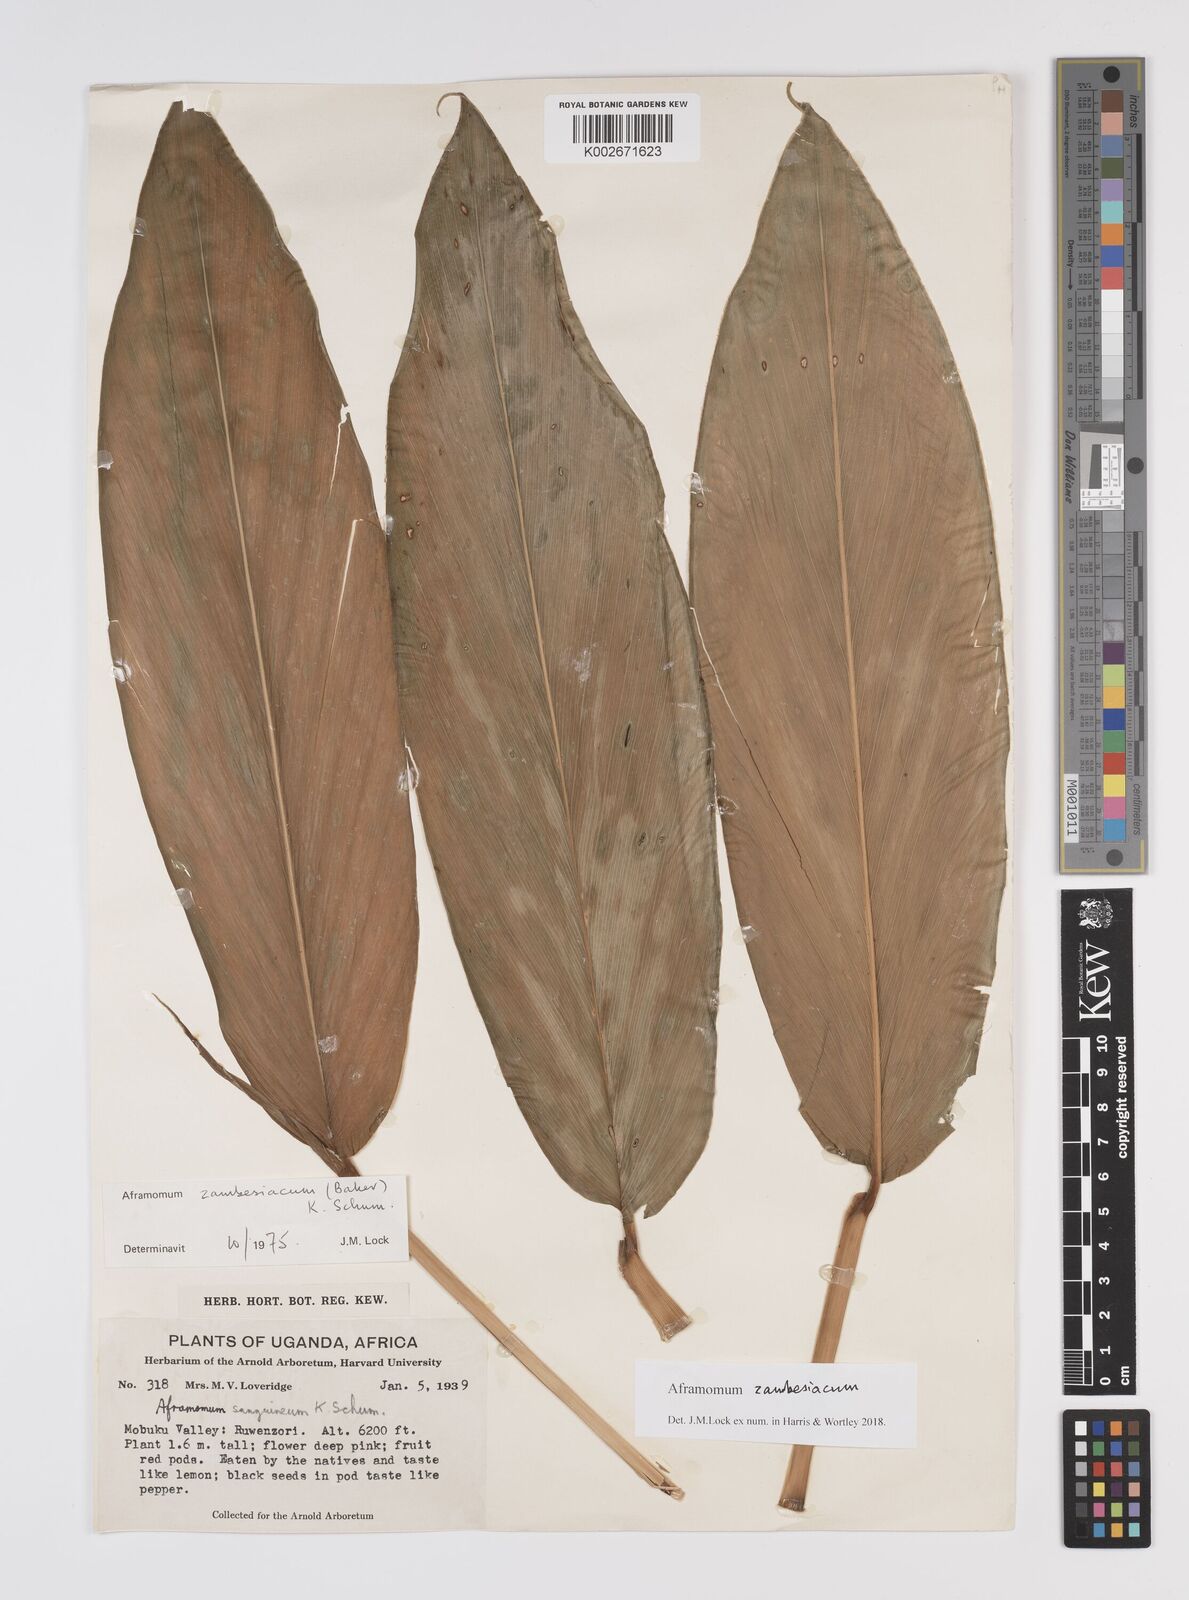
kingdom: Plantae
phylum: Tracheophyta
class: Liliopsida
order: Zingiberales
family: Zingiberaceae
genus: Aframomum
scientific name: Aframomum zambesiacum
